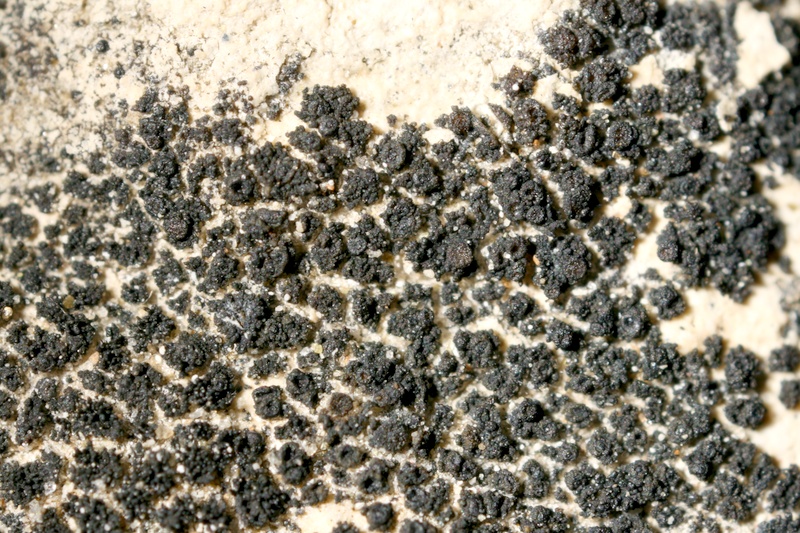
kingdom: Fungi
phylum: Ascomycota
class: Lichinomycetes
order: Lichinales
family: Lichinaceae
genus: Psorotichia
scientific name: Psorotichia
